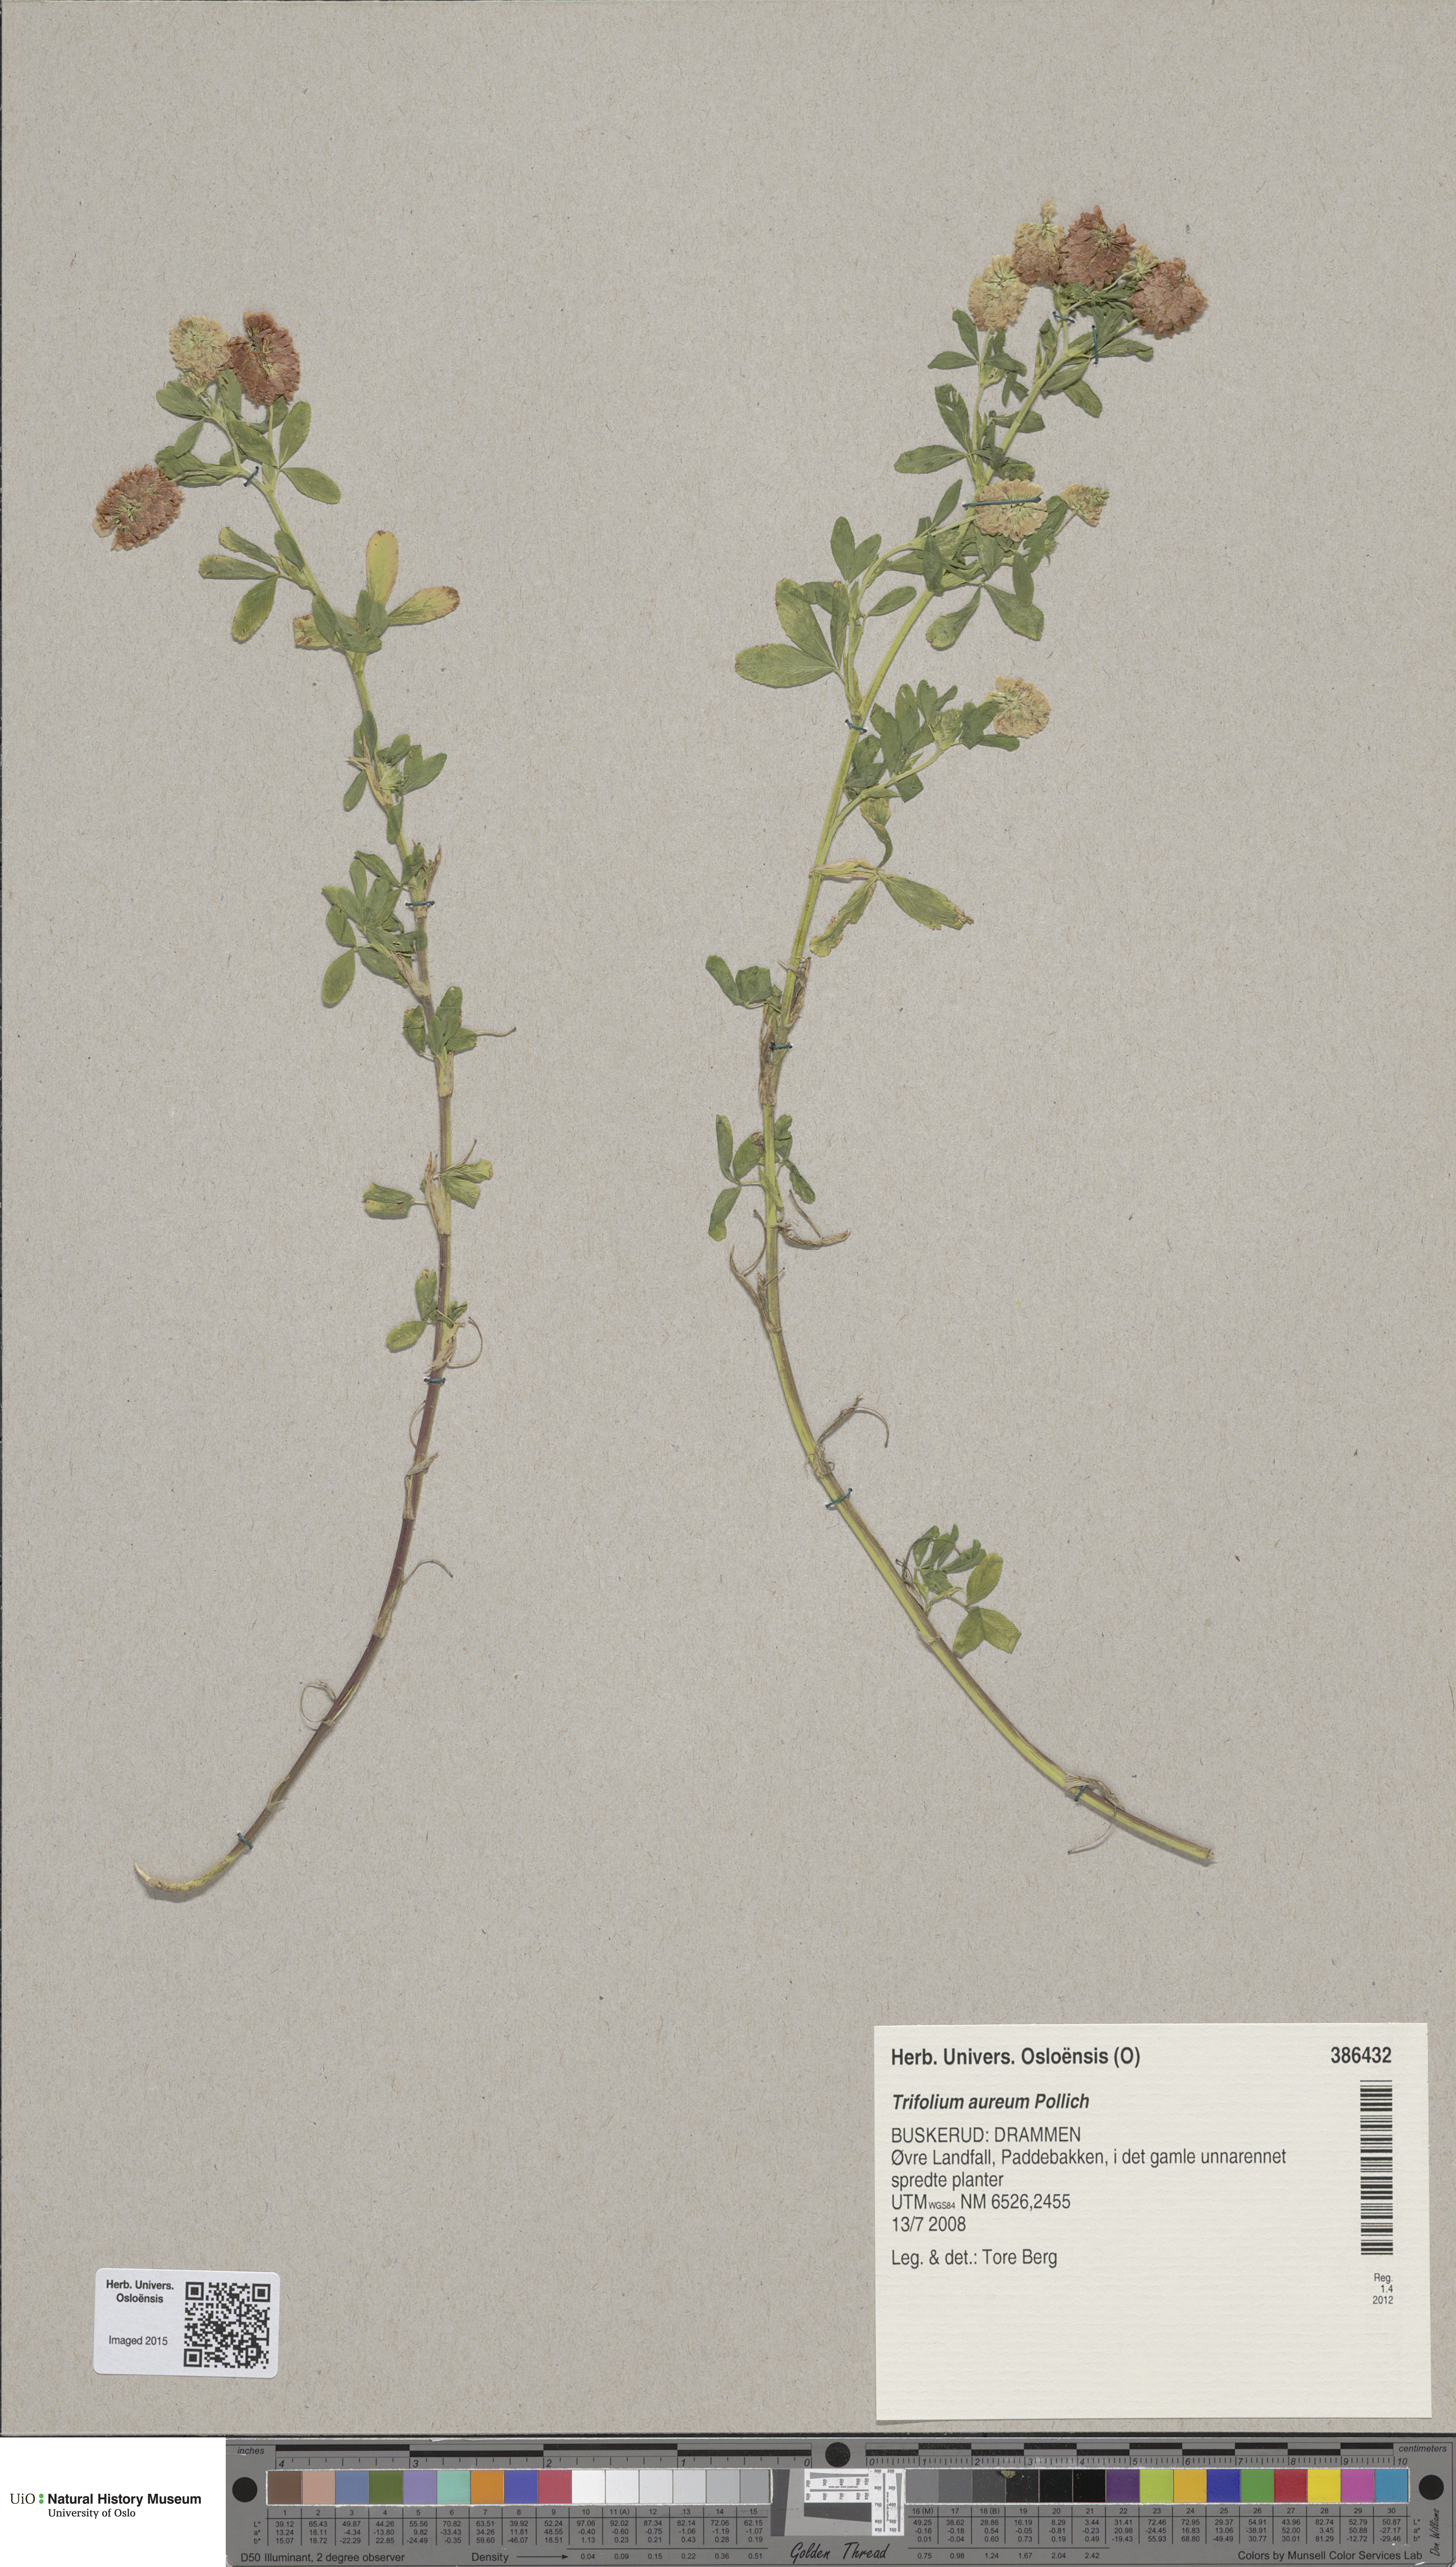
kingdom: Plantae
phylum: Tracheophyta
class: Magnoliopsida
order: Fabales
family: Fabaceae
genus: Trifolium
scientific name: Trifolium aureum
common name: Golden clover
